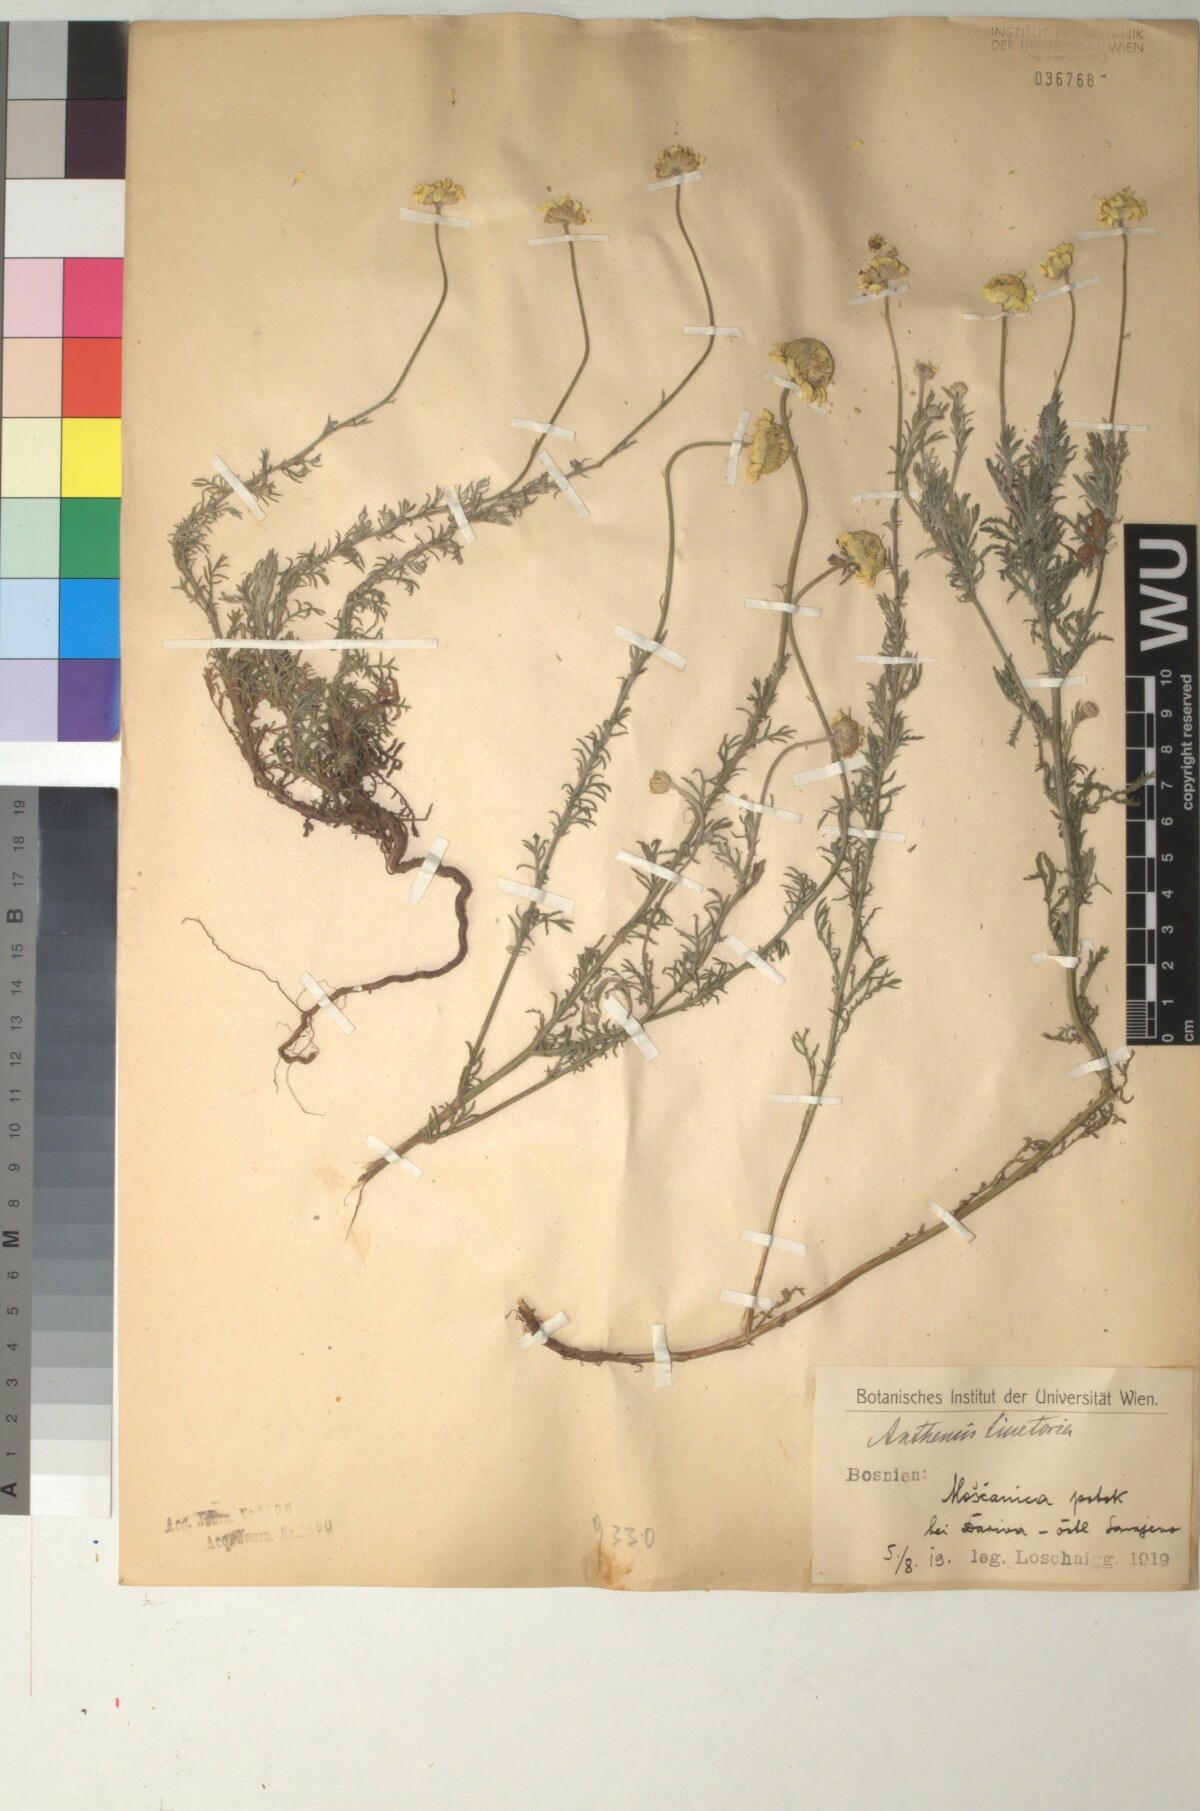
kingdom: Plantae
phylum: Tracheophyta
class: Magnoliopsida
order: Asterales
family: Asteraceae
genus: Cota
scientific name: Cota tinctoria
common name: Golden chamomile
